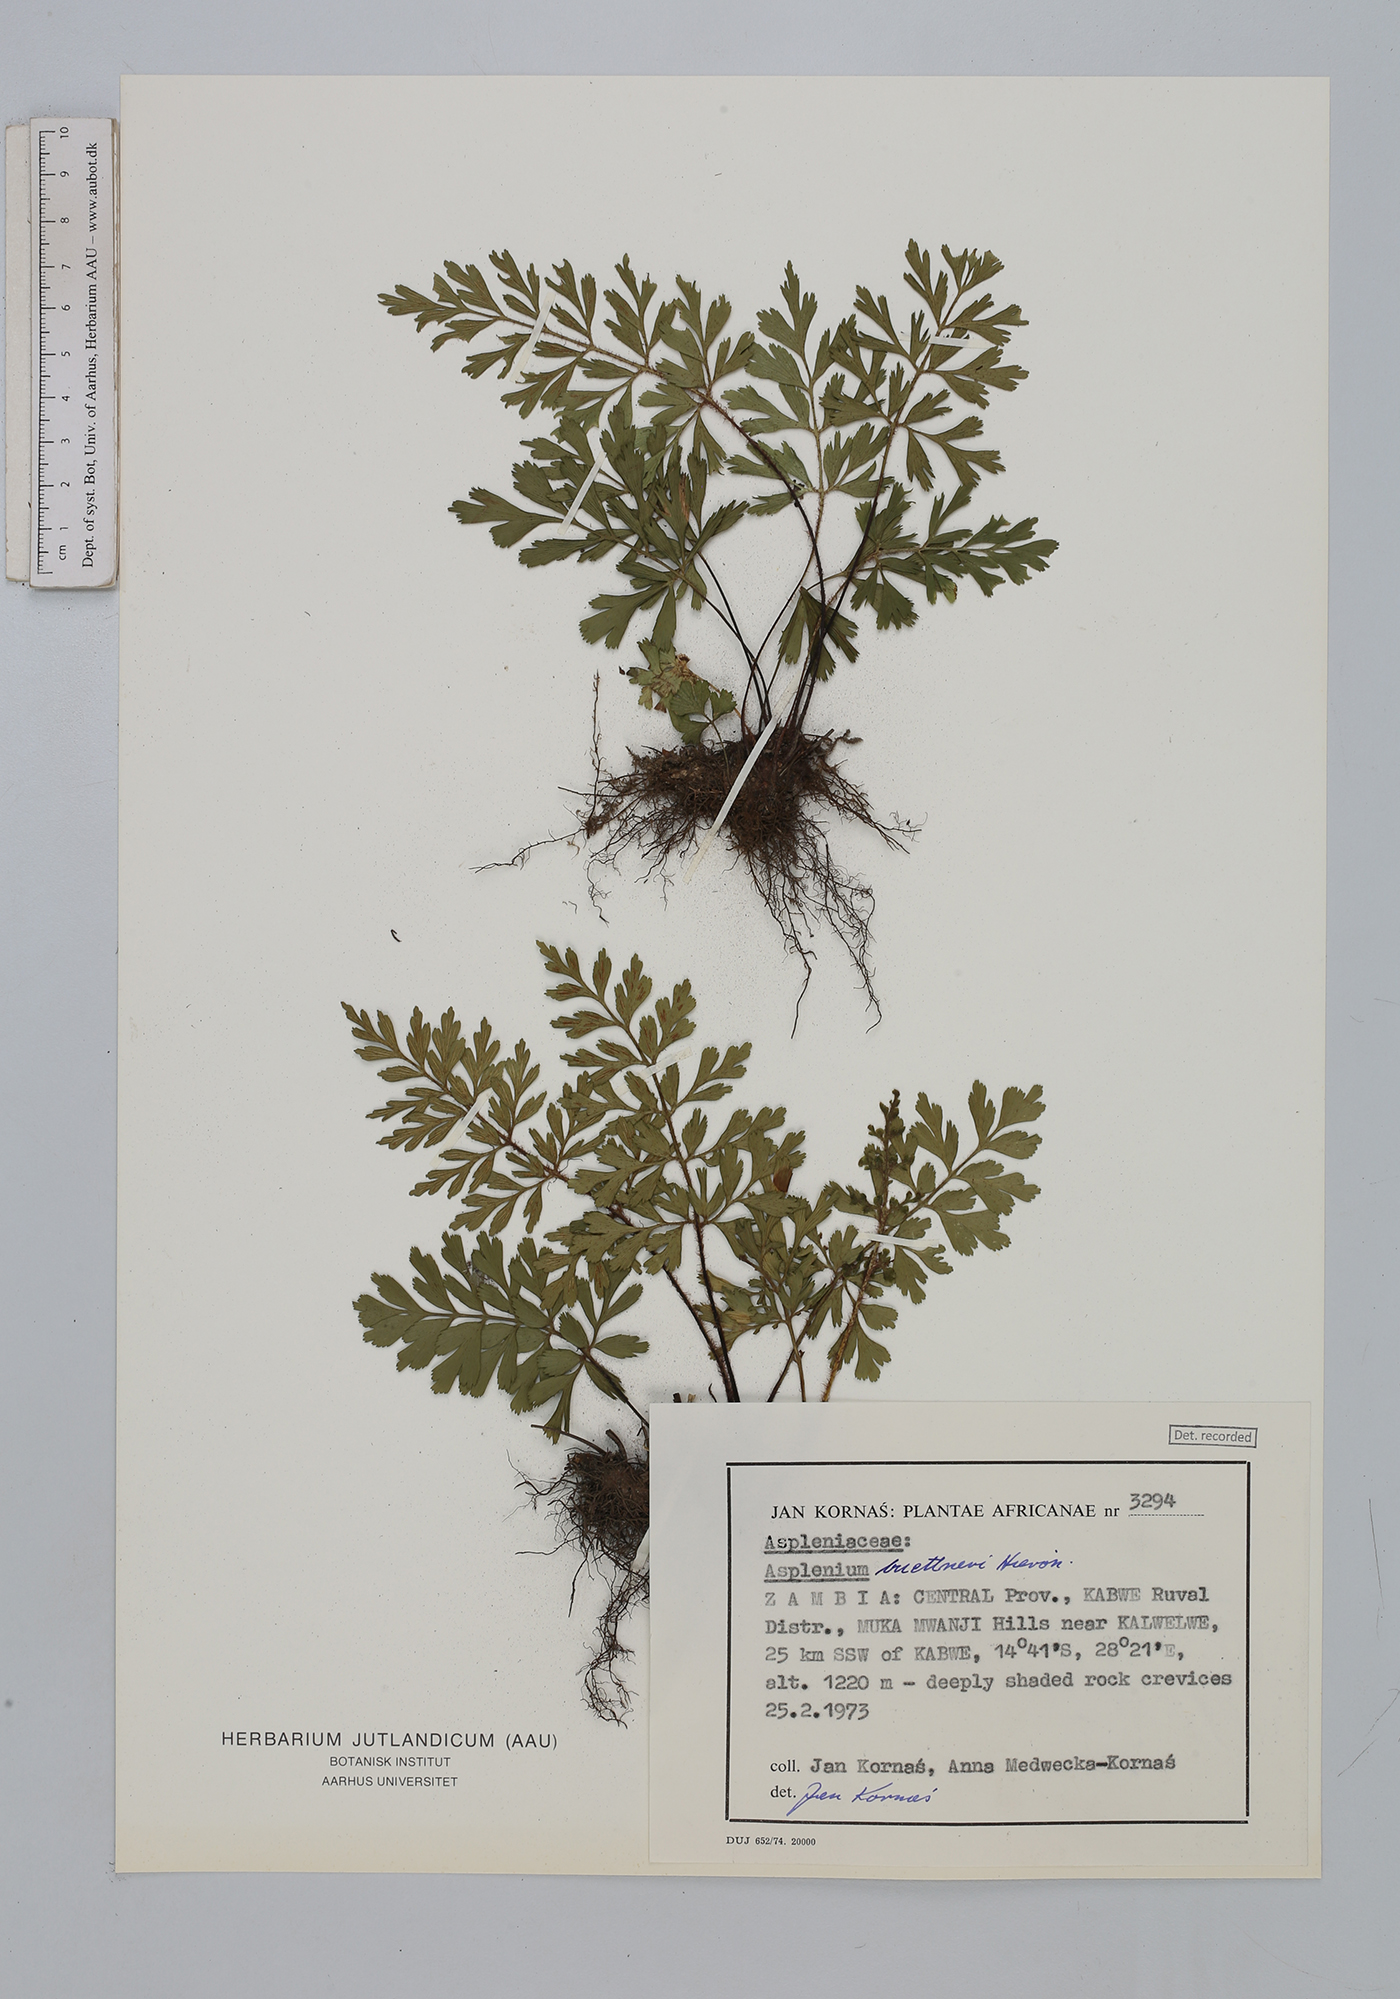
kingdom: Plantae
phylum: Tracheophyta
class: Polypodiopsida
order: Polypodiales
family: Aspleniaceae
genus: Asplenium
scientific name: Asplenium buettneri
